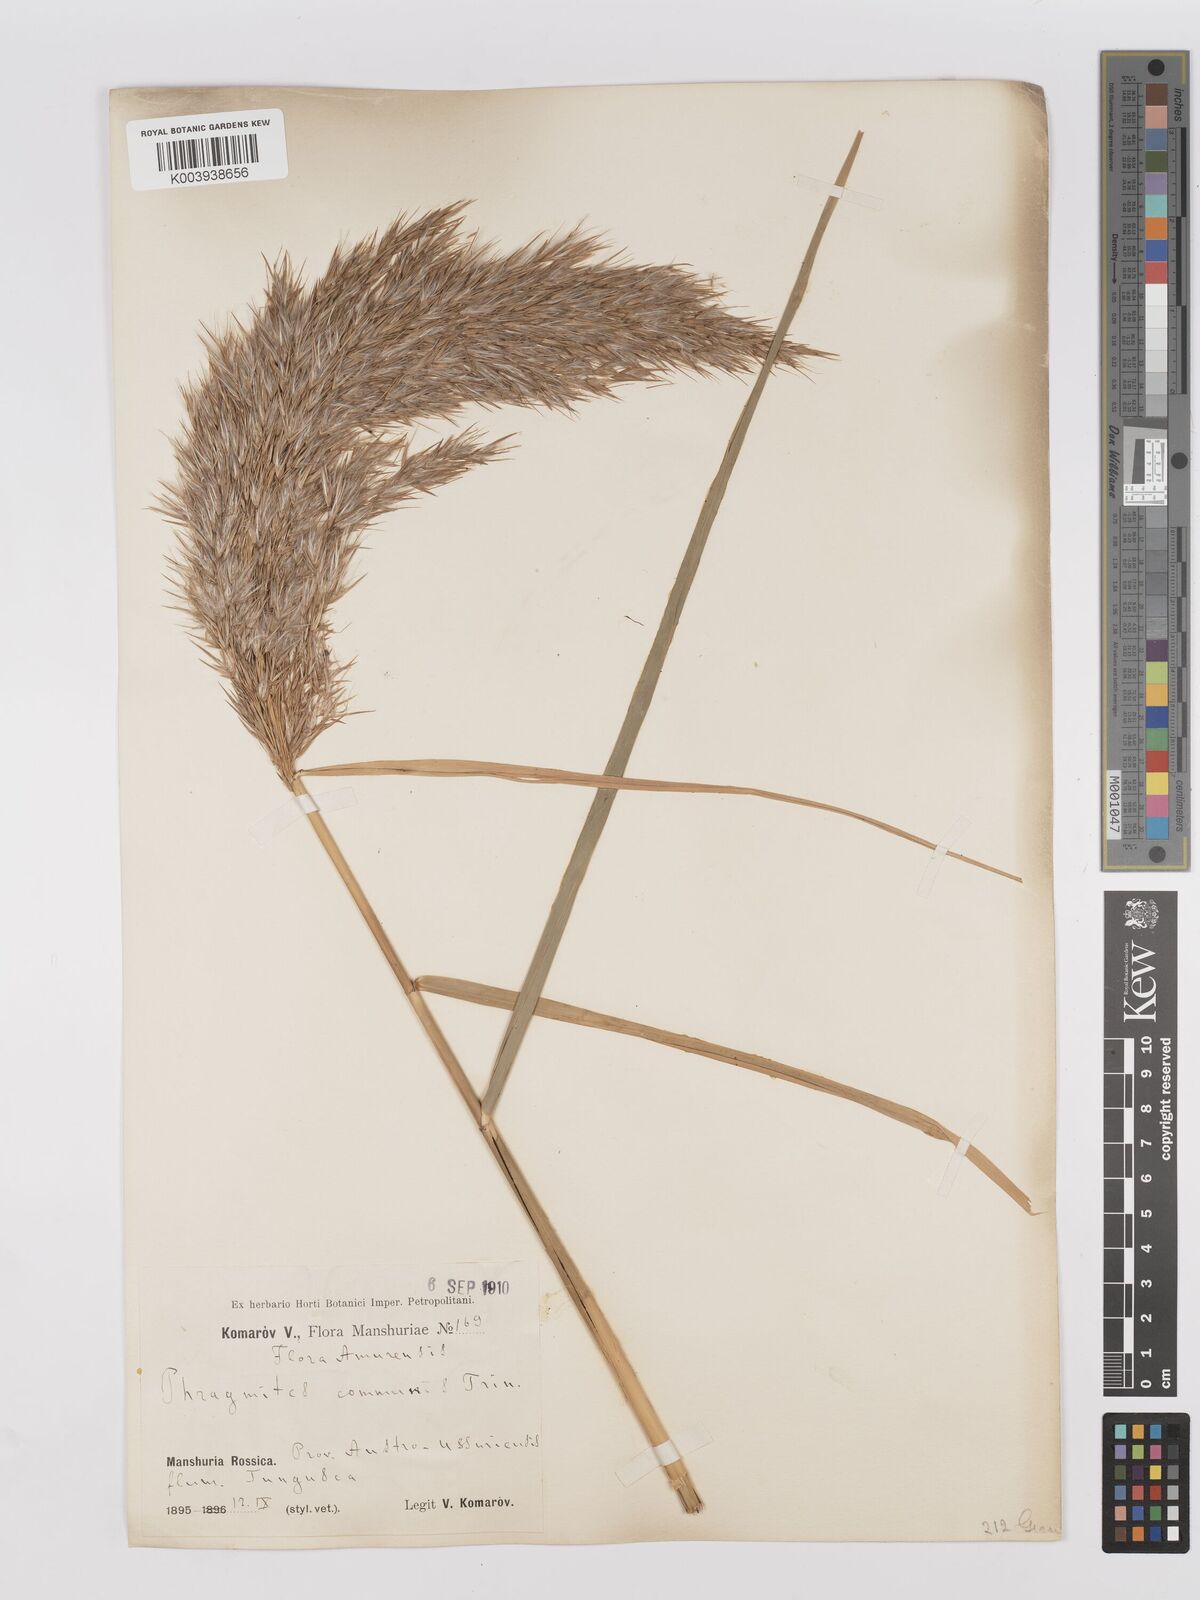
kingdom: Plantae
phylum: Tracheophyta
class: Liliopsida
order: Poales
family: Poaceae
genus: Phragmites
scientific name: Phragmites australis
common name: Common reed
